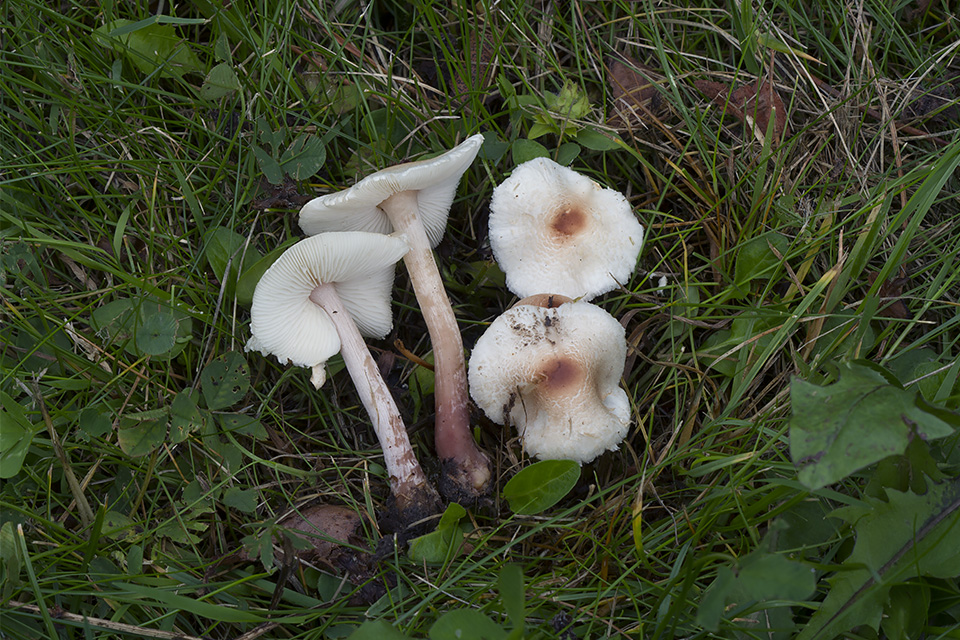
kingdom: Fungi
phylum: Basidiomycota
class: Agaricomycetes
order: Agaricales
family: Agaricaceae
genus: Lepiota
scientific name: Lepiota cristata
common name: stinkende parasolhat
